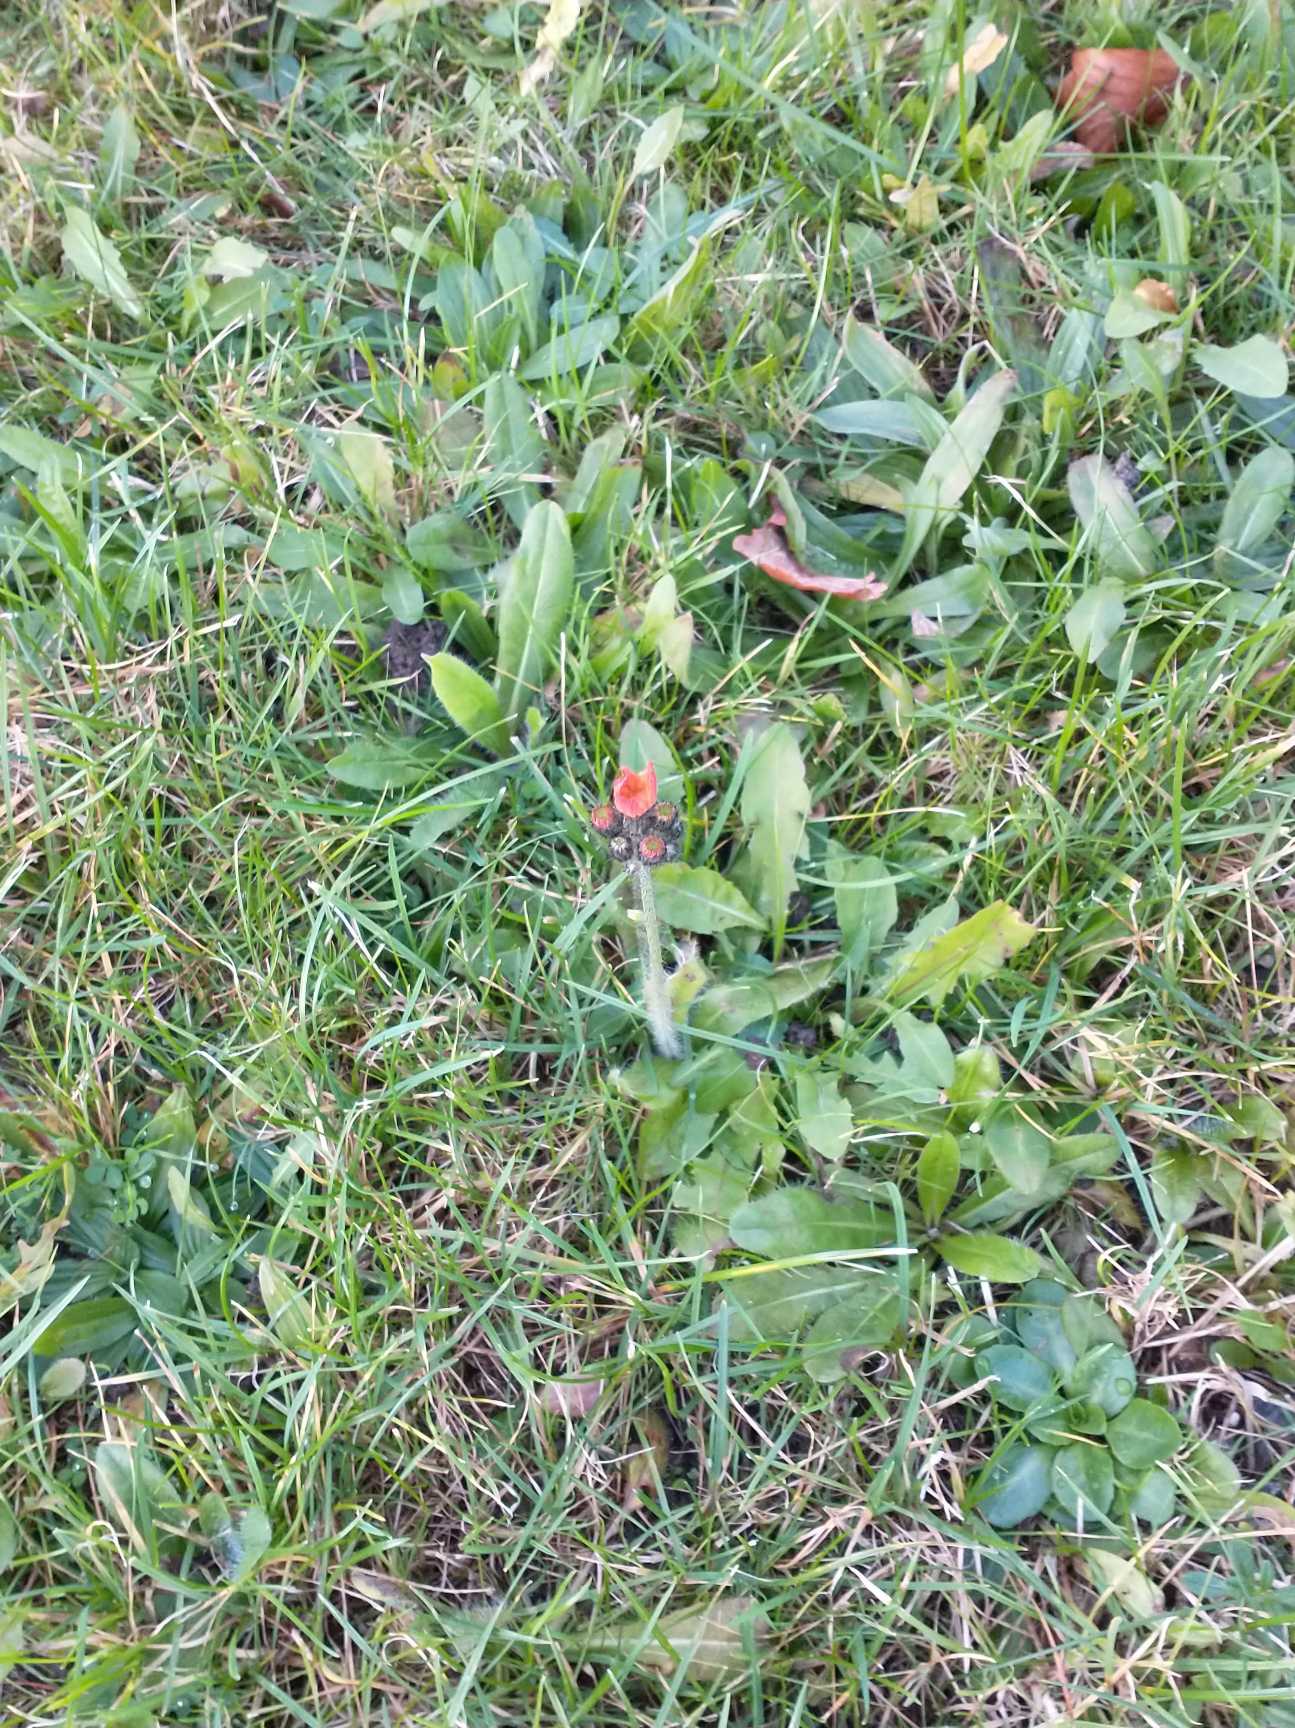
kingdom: Plantae
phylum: Tracheophyta
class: Magnoliopsida
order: Asterales
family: Asteraceae
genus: Pilosella
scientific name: Pilosella aurantiaca
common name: Pomerans-høgeurt
